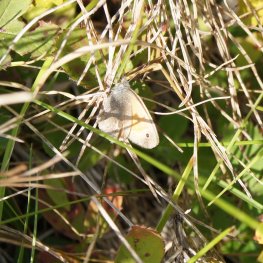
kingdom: Animalia
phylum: Arthropoda
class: Insecta
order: Lepidoptera
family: Nymphalidae
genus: Coenonympha
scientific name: Coenonympha tullia
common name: Large Heath
